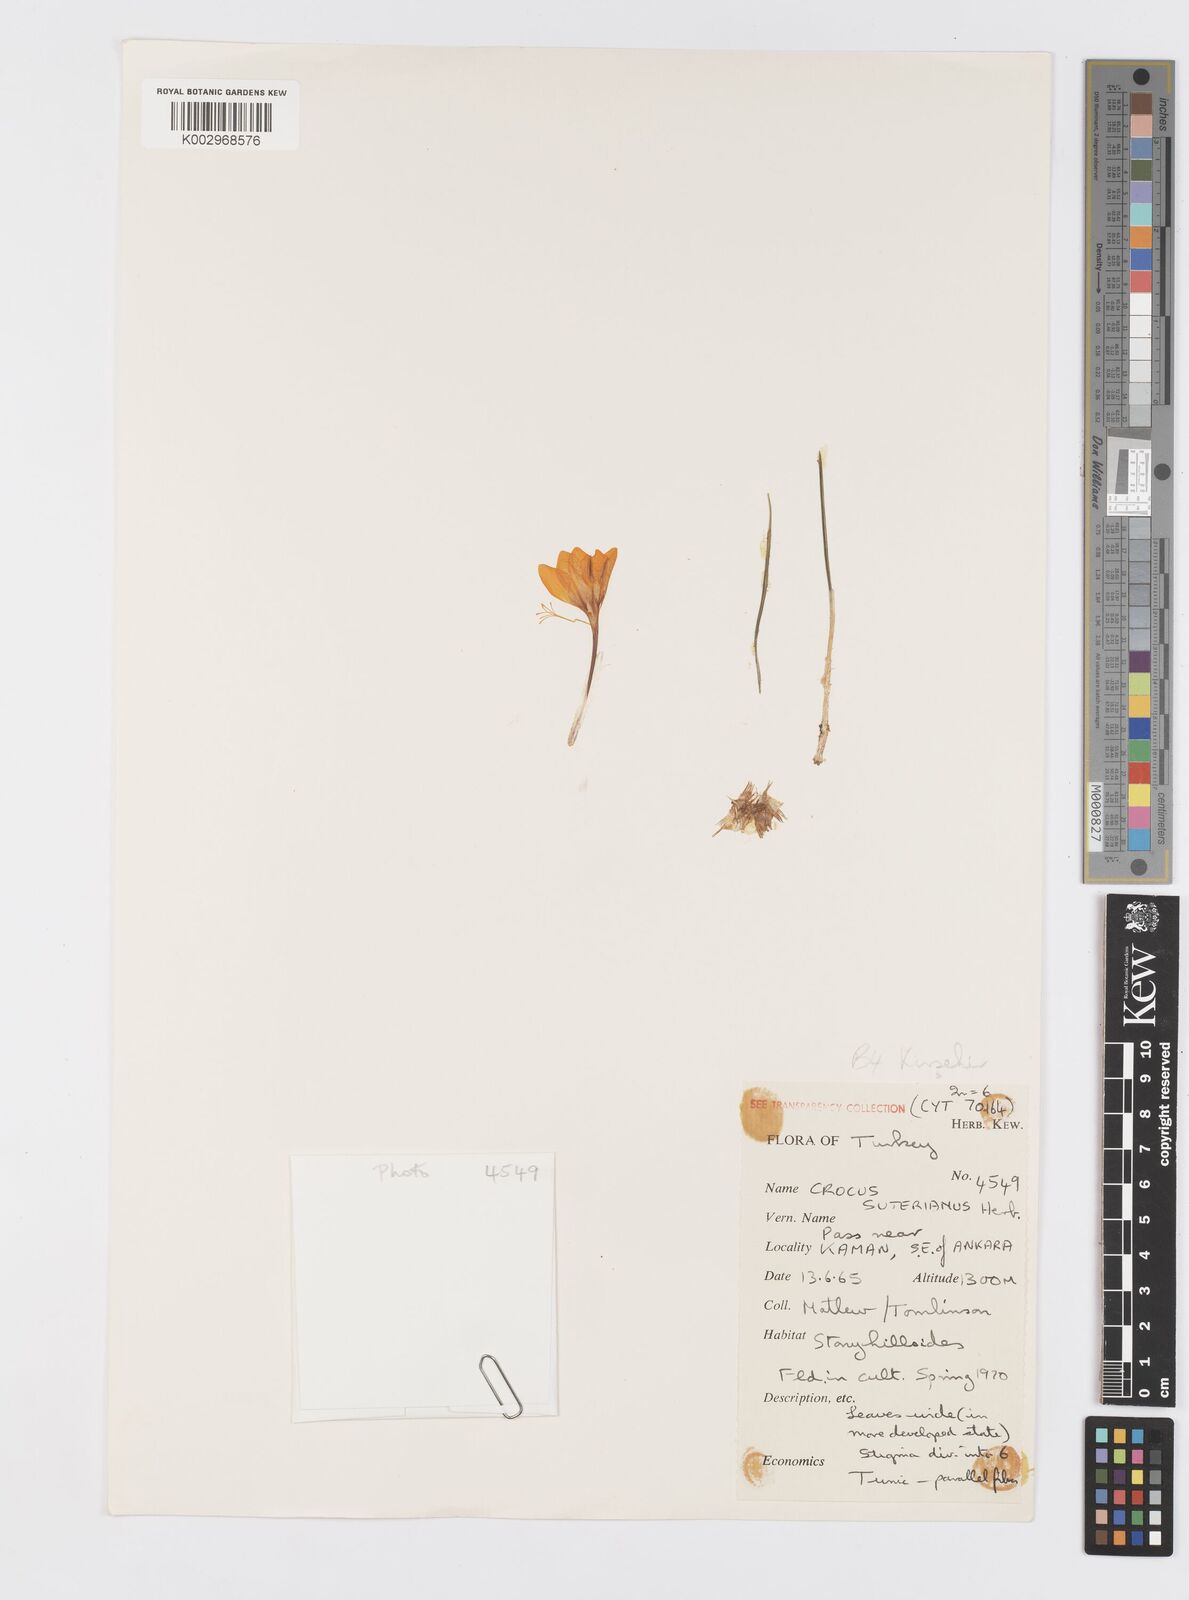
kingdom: Plantae
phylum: Tracheophyta
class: Liliopsida
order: Asparagales
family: Iridaceae
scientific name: Iridaceae
